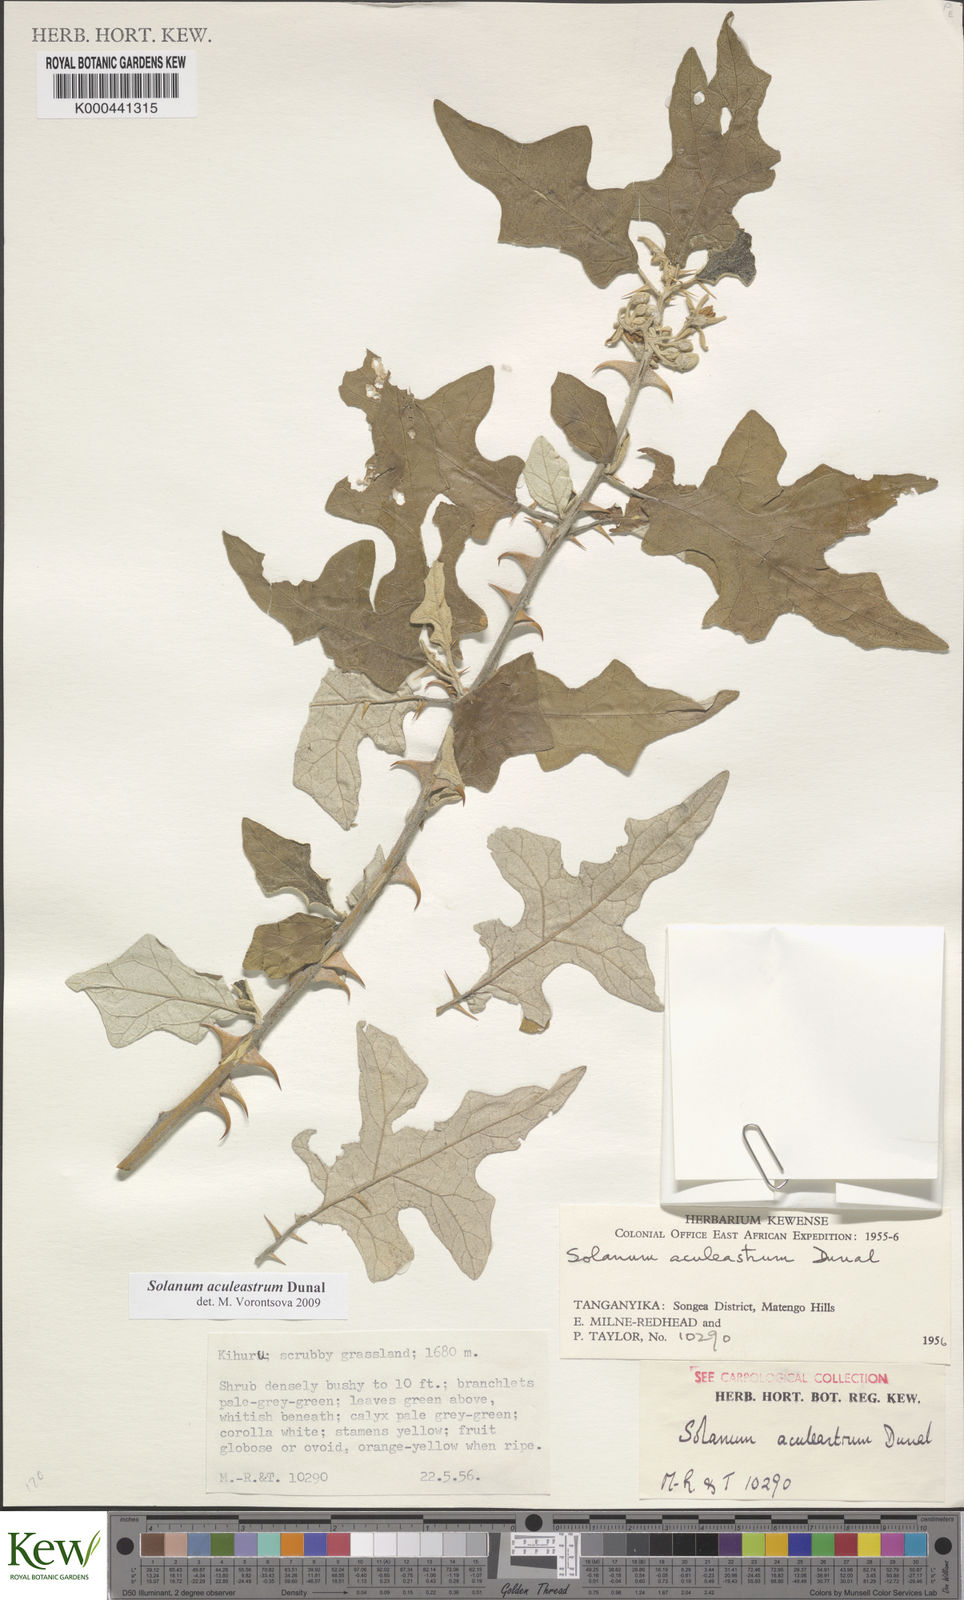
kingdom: Plantae
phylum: Tracheophyta
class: Magnoliopsida
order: Solanales
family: Solanaceae
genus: Solanum
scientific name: Solanum aculeastrum
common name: Goat bitter-apple
